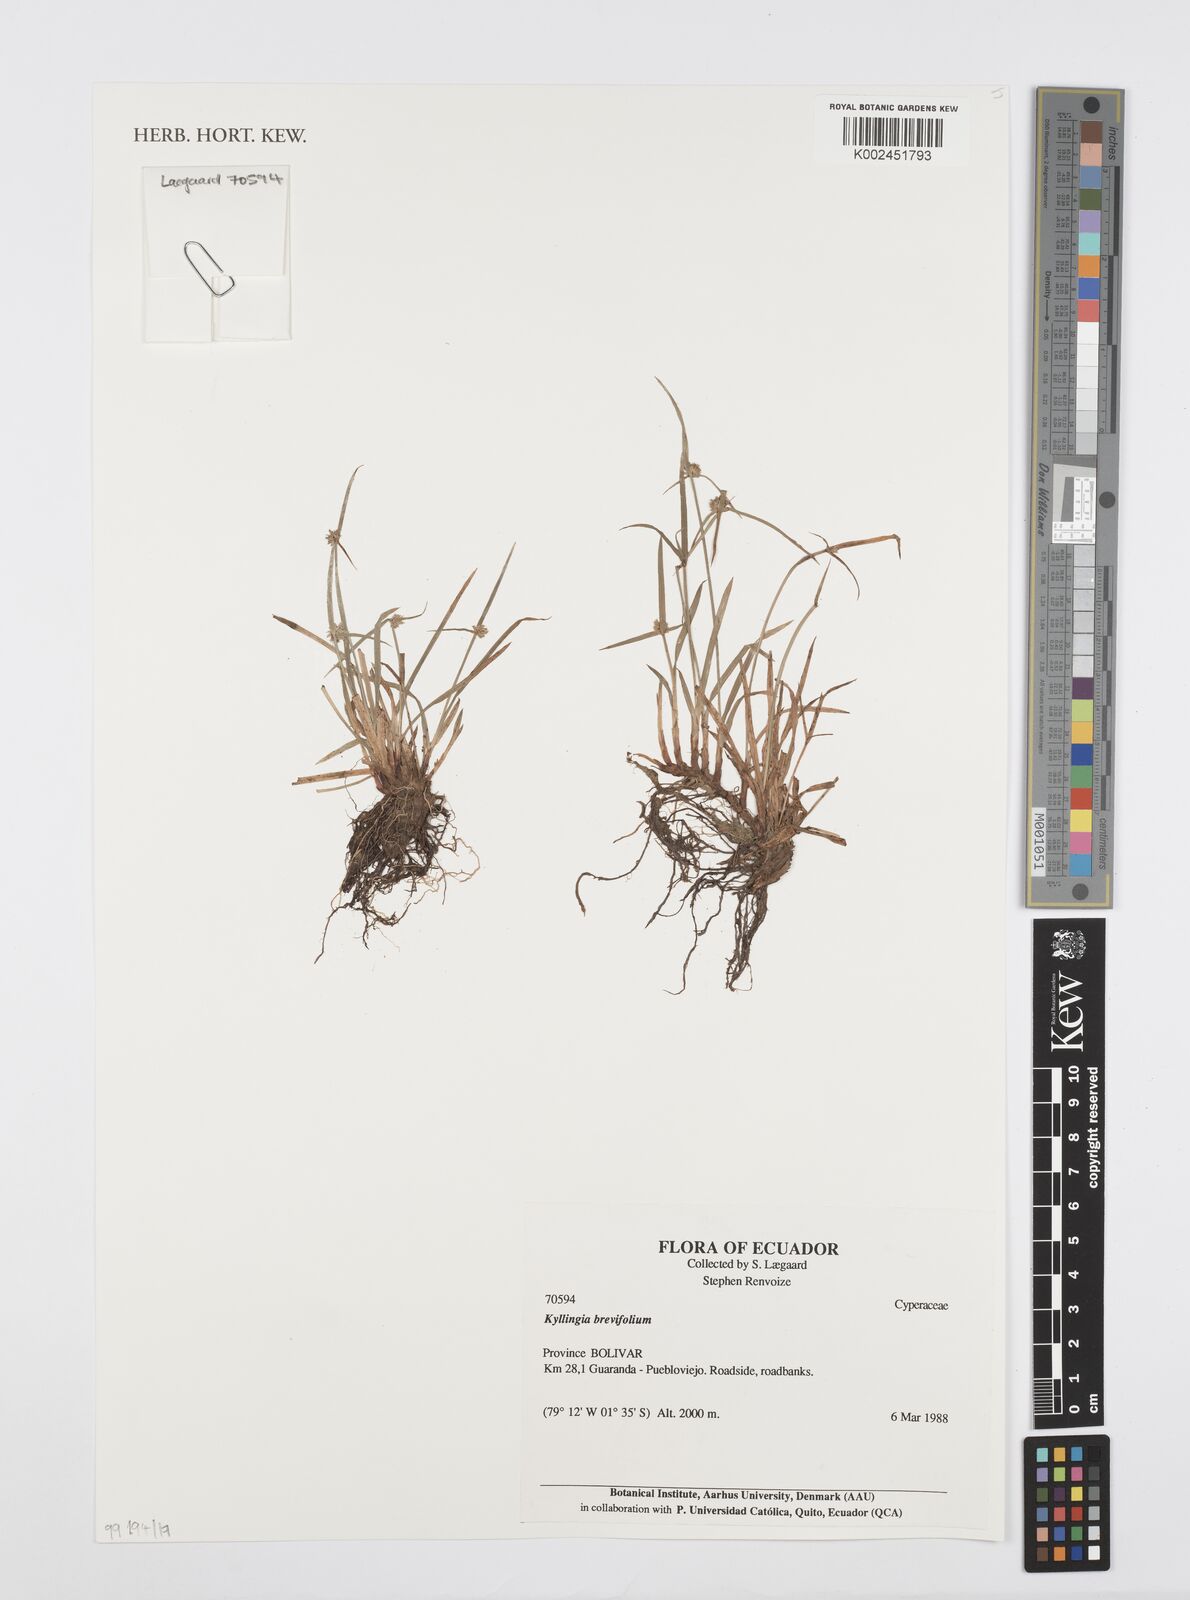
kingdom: Plantae
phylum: Tracheophyta
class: Liliopsida
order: Poales
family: Cyperaceae
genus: Cyperus
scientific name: Cyperus brevifolius
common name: Globe kyllinga
